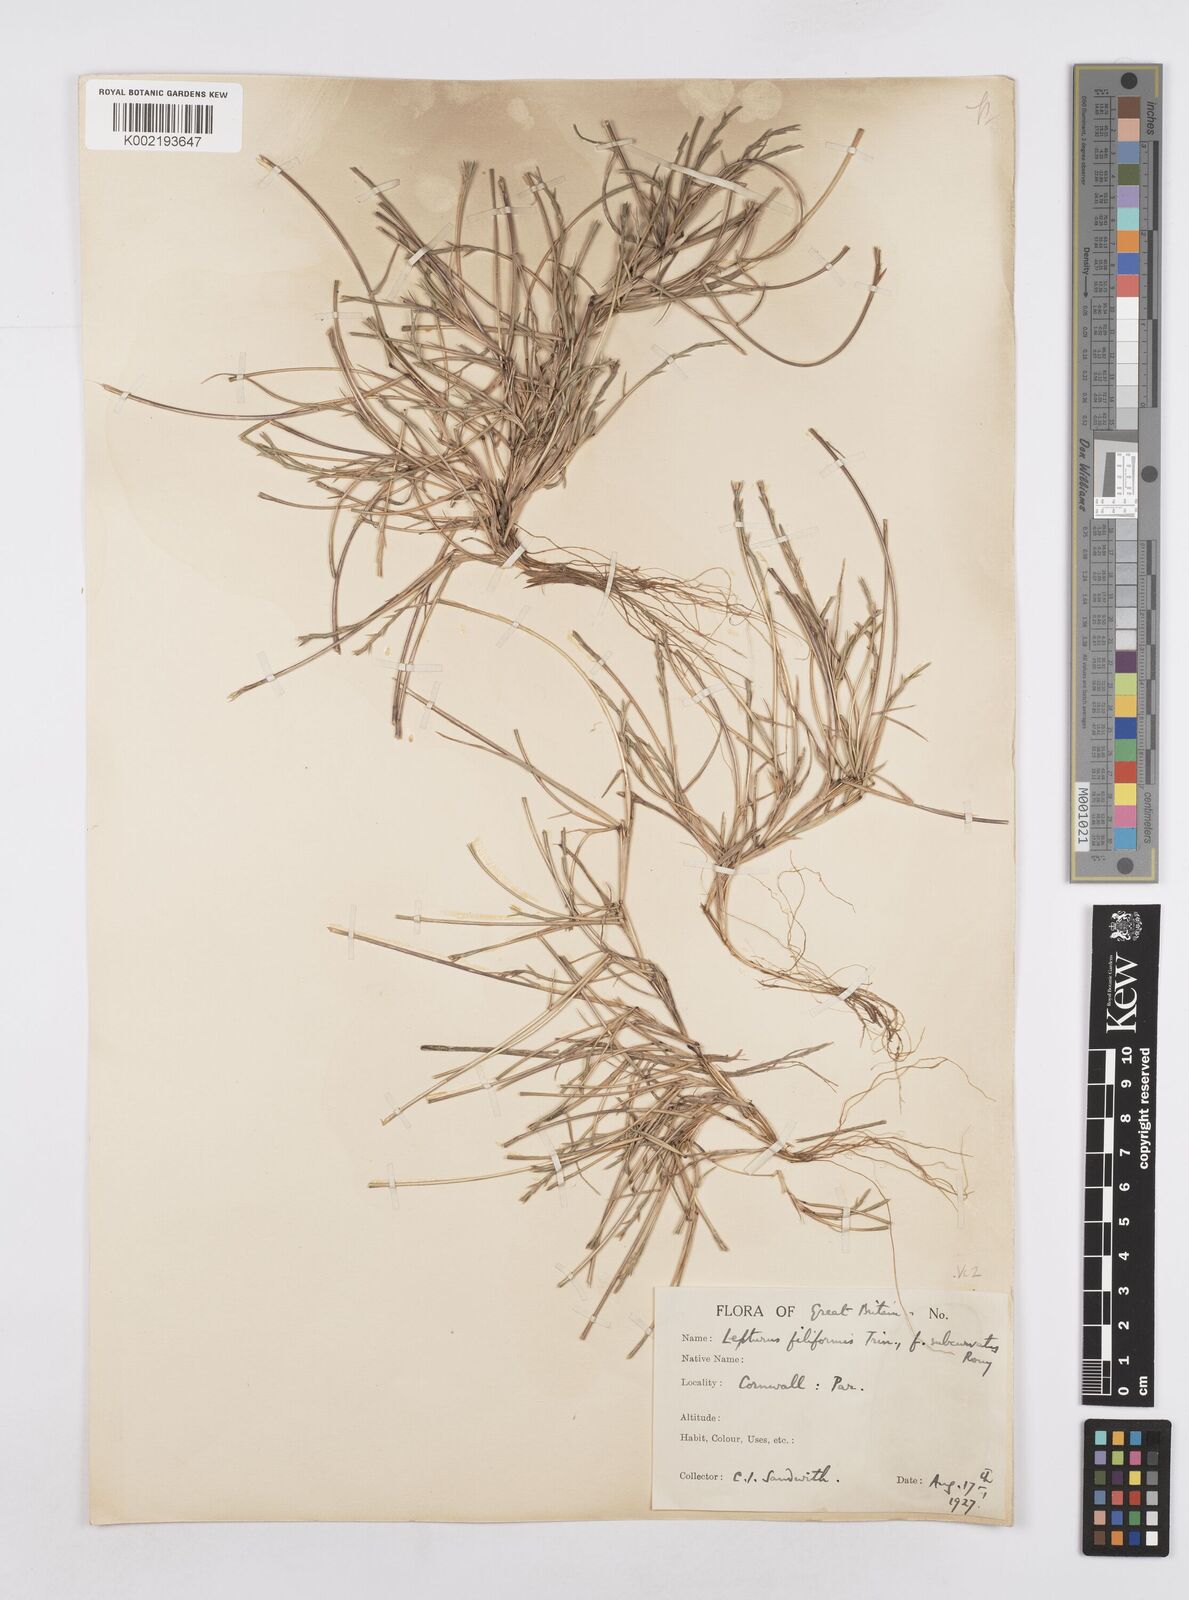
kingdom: Plantae
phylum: Tracheophyta
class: Liliopsida
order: Poales
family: Poaceae
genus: Parapholis
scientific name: Parapholis strigosa
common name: Hard-grass
